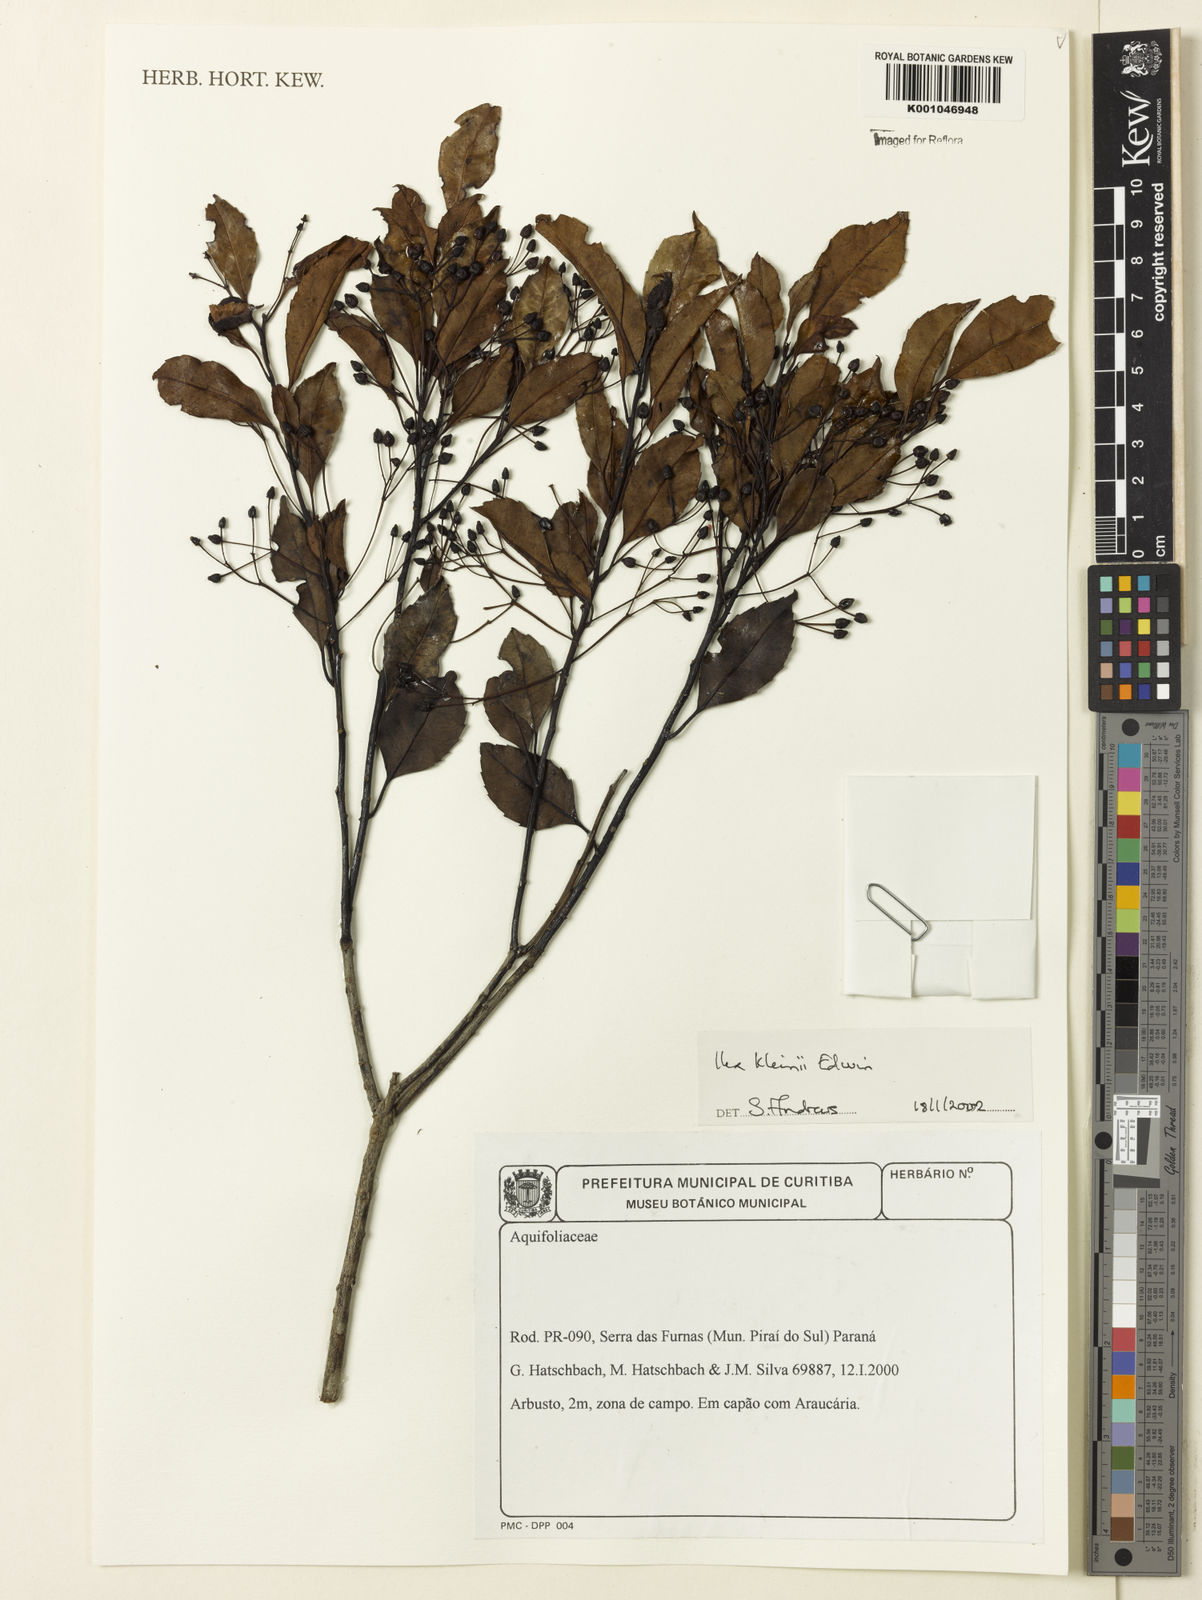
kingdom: Plantae
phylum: Tracheophyta
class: Magnoliopsida
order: Aquifoliales
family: Aquifoliaceae
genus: Ilex
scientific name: Ilex taubertiana
